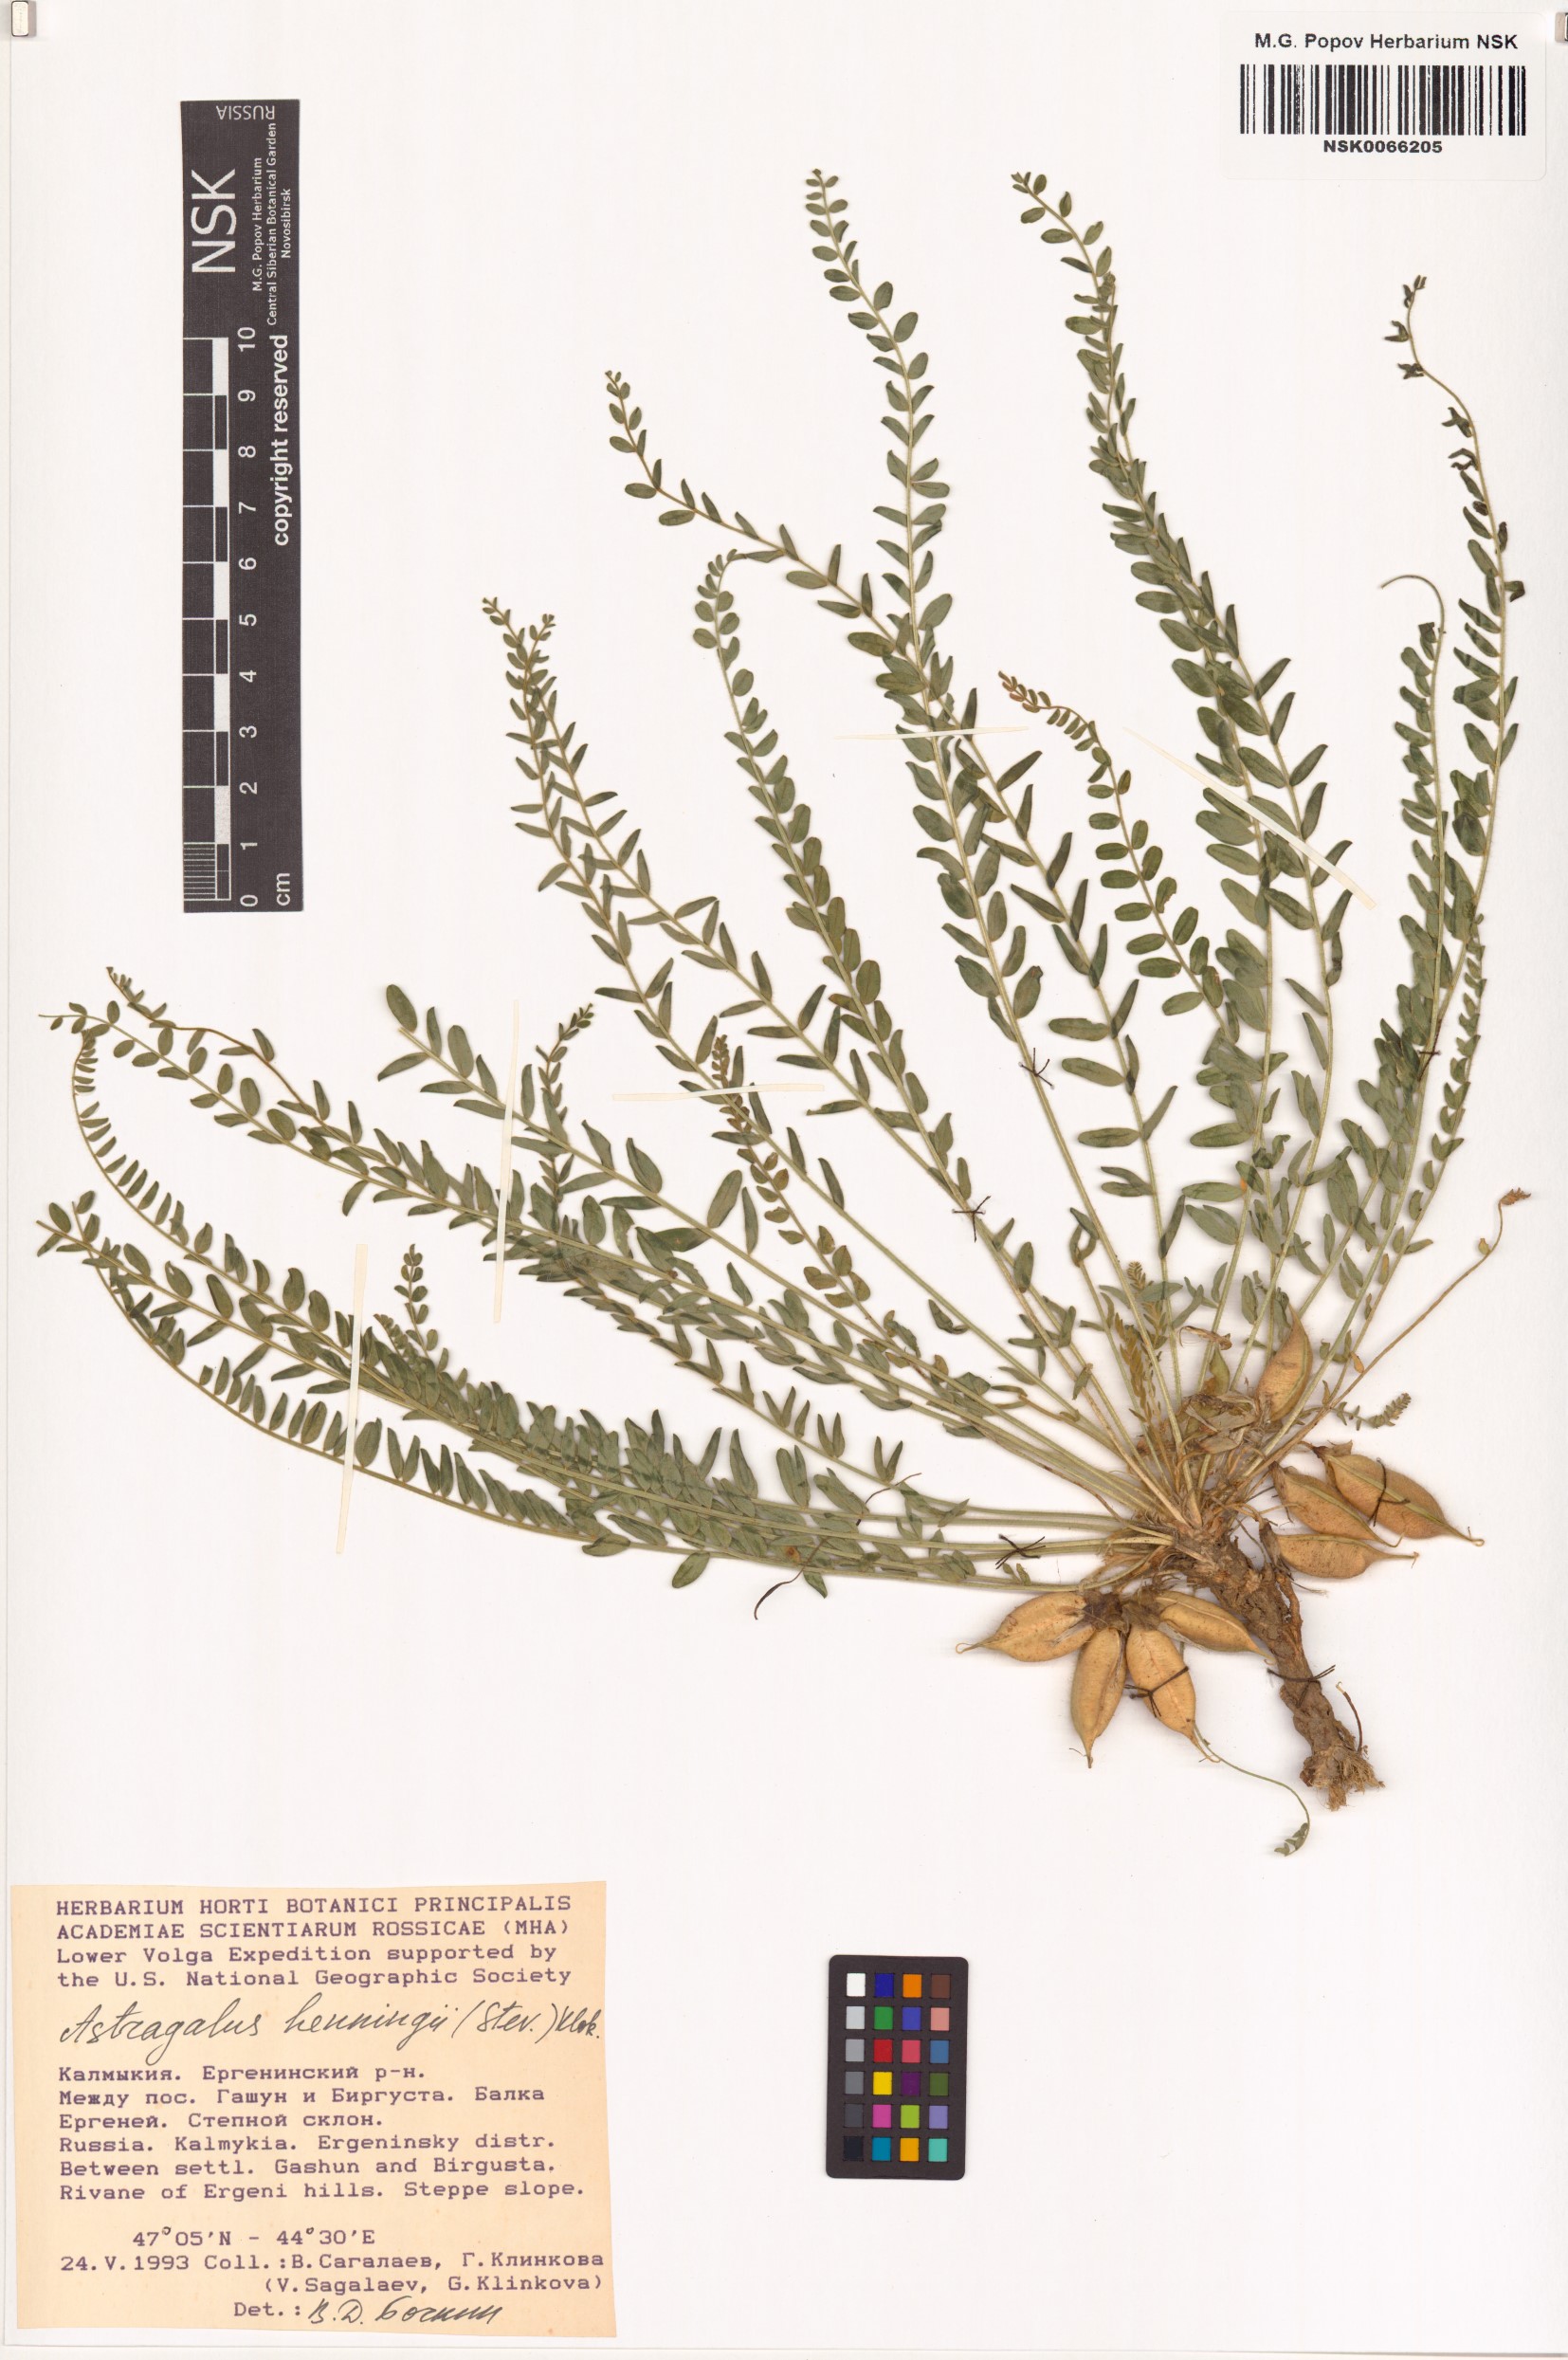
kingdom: Plantae
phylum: Tracheophyta
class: Magnoliopsida
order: Fabales
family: Fabaceae
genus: Astragalus
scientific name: Astragalus buchtormensis
